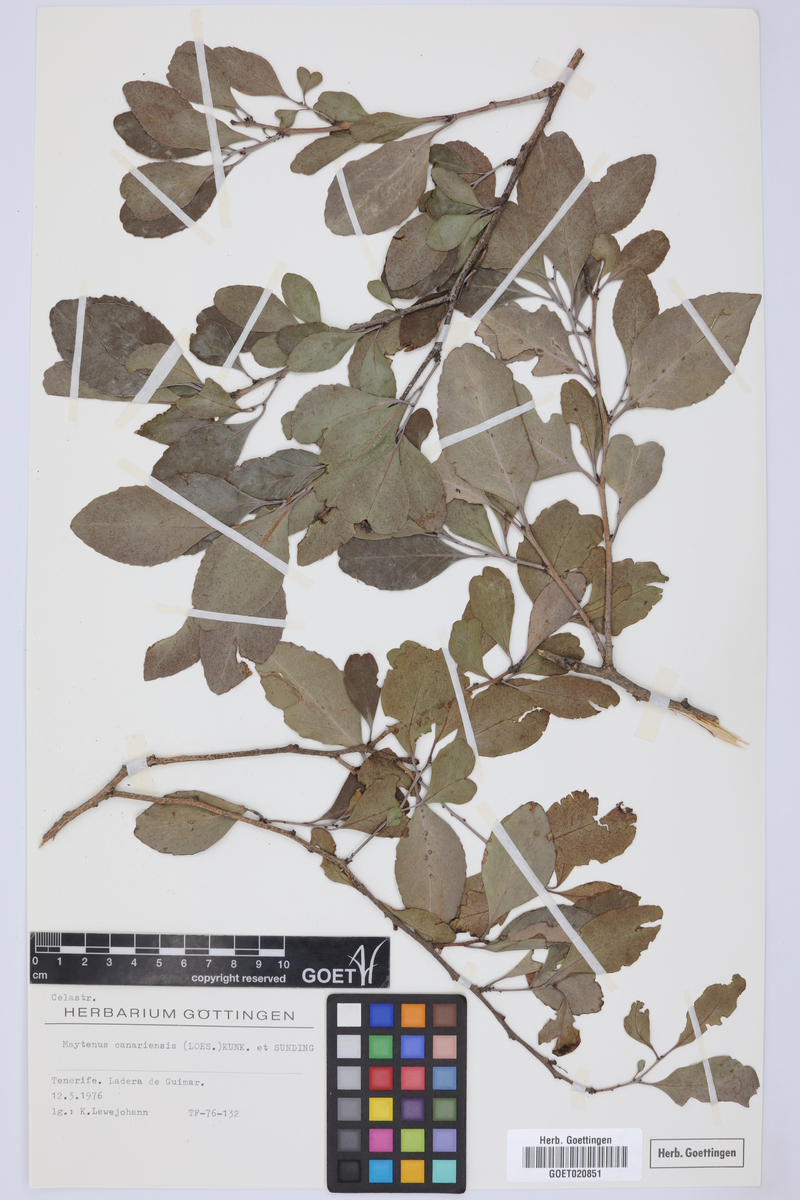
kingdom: Plantae
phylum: Tracheophyta
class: Magnoliopsida
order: Celastrales
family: Celastraceae
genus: Gymnosporia
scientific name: Gymnosporia cassinoides
